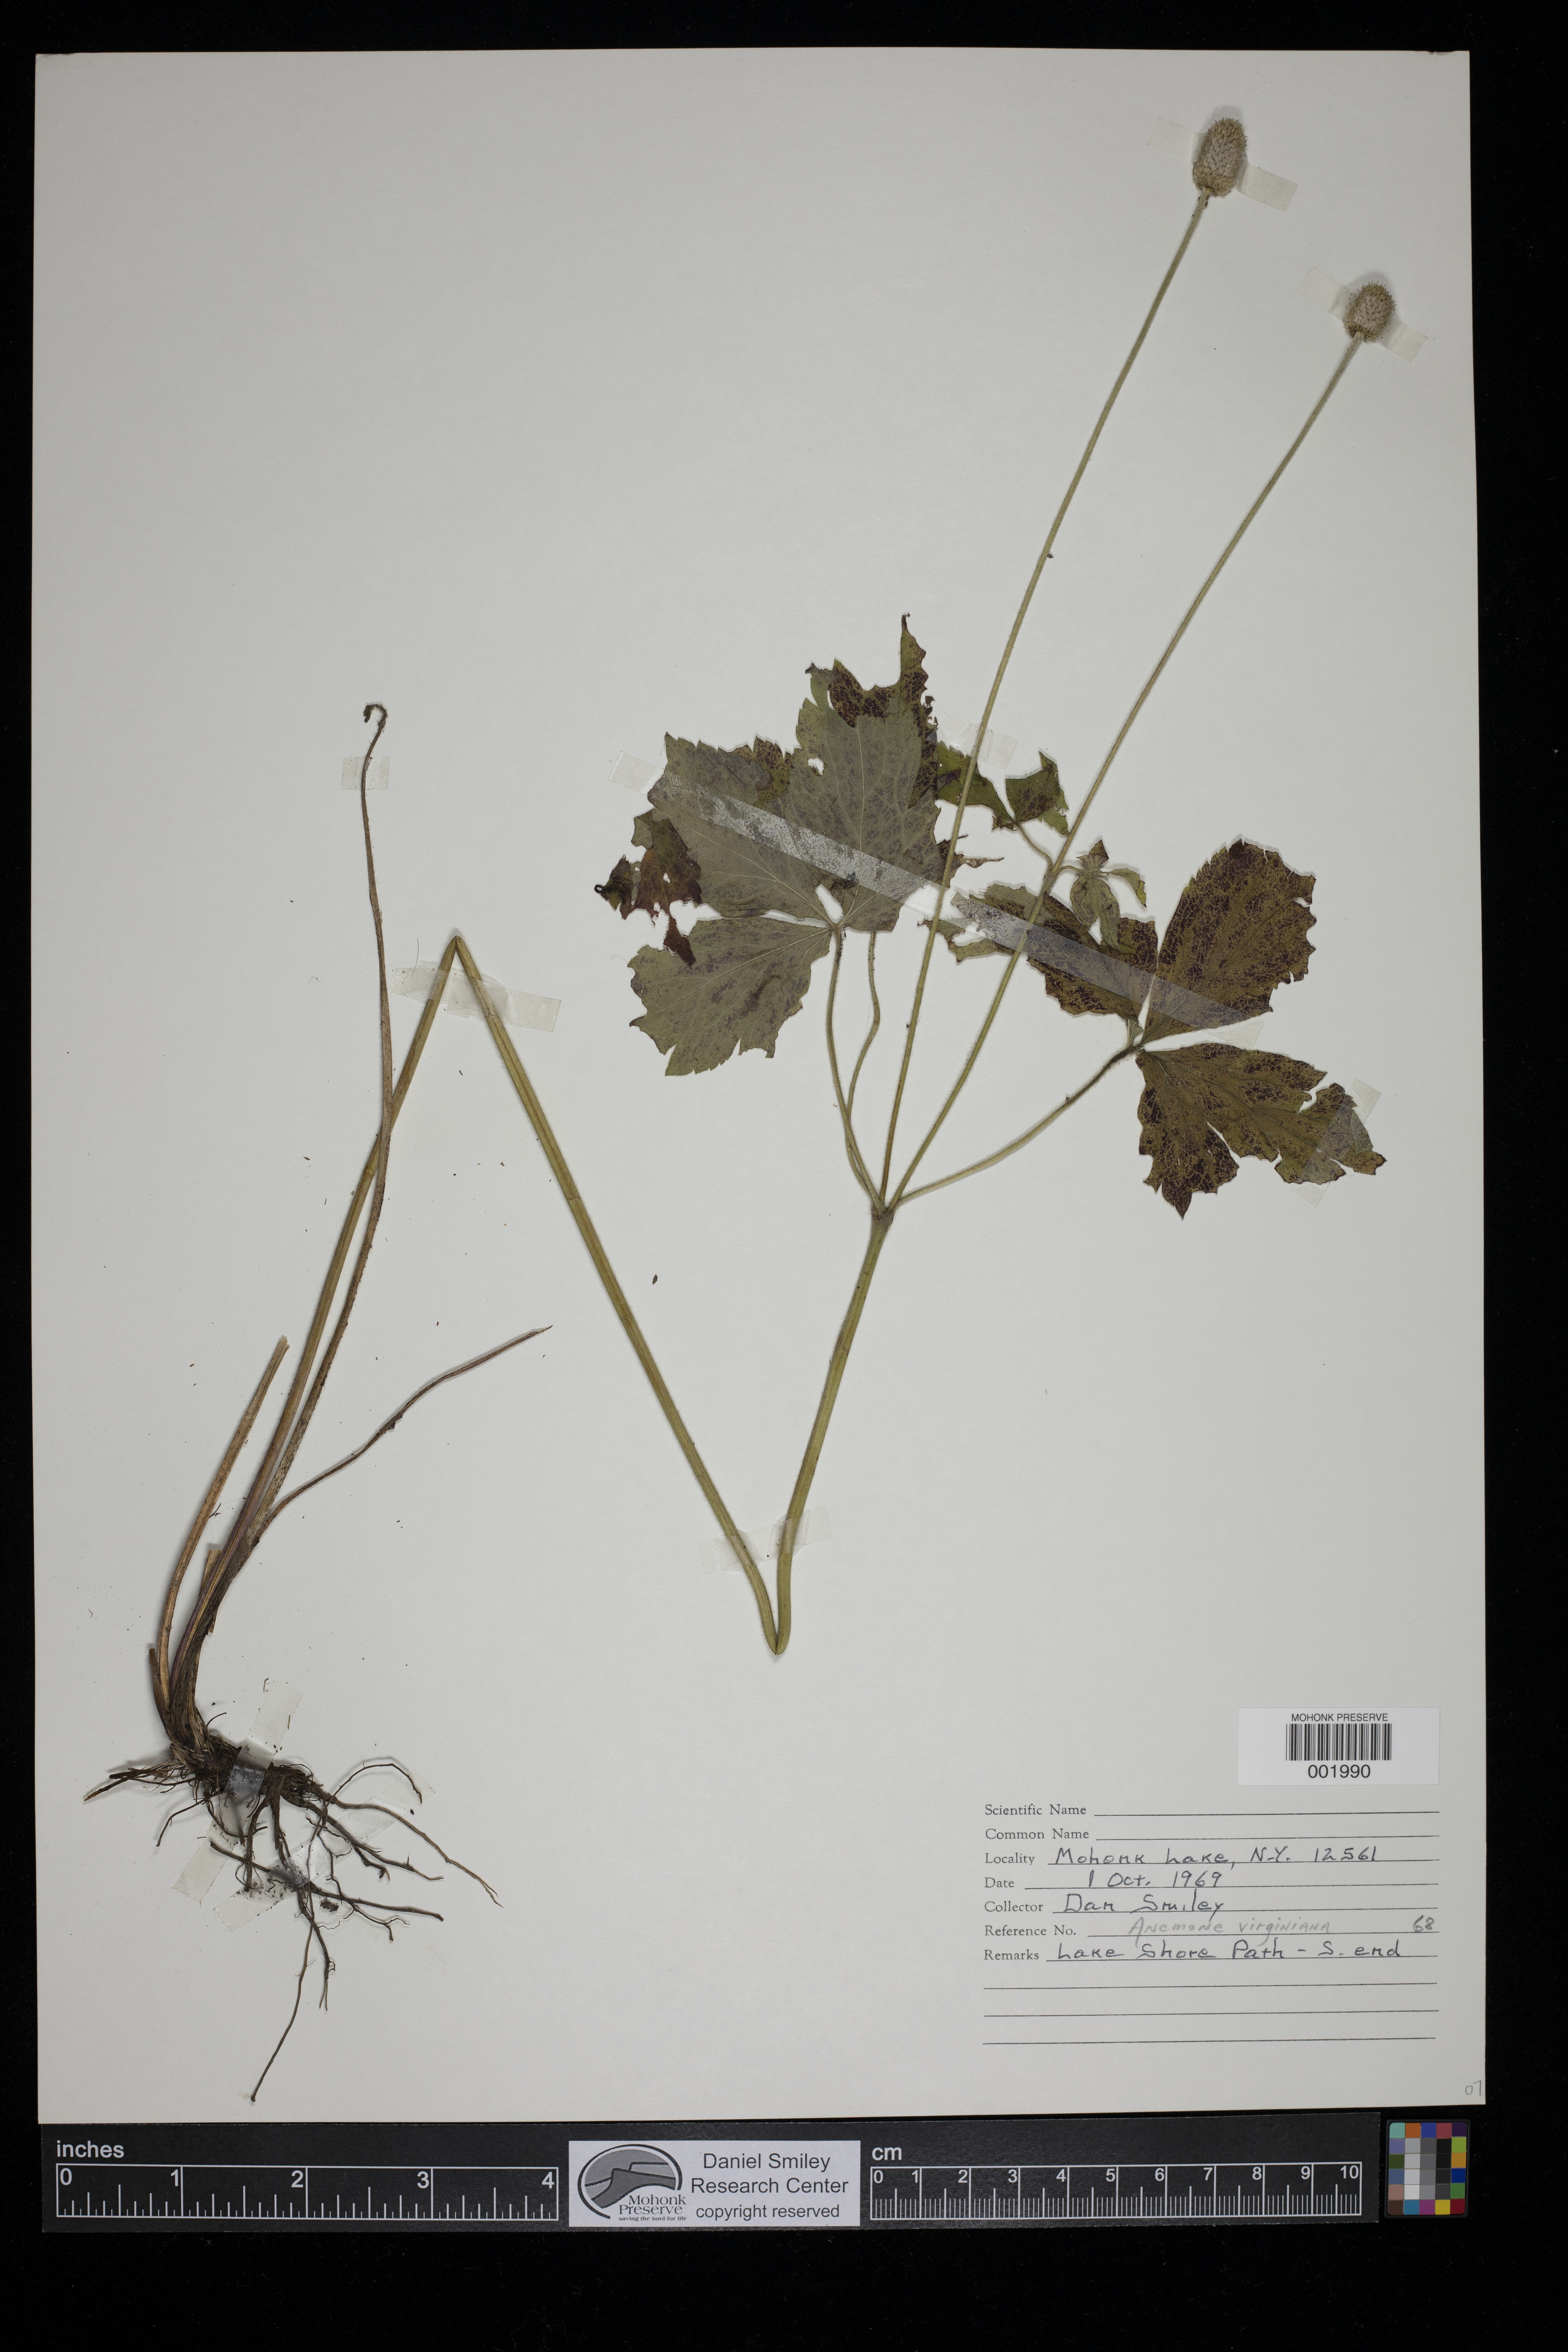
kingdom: Plantae
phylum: Tracheophyta
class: Magnoliopsida
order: Ranunculales
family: Ranunculaceae
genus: Anemone
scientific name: Anemone virginiana
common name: Tall anemone
